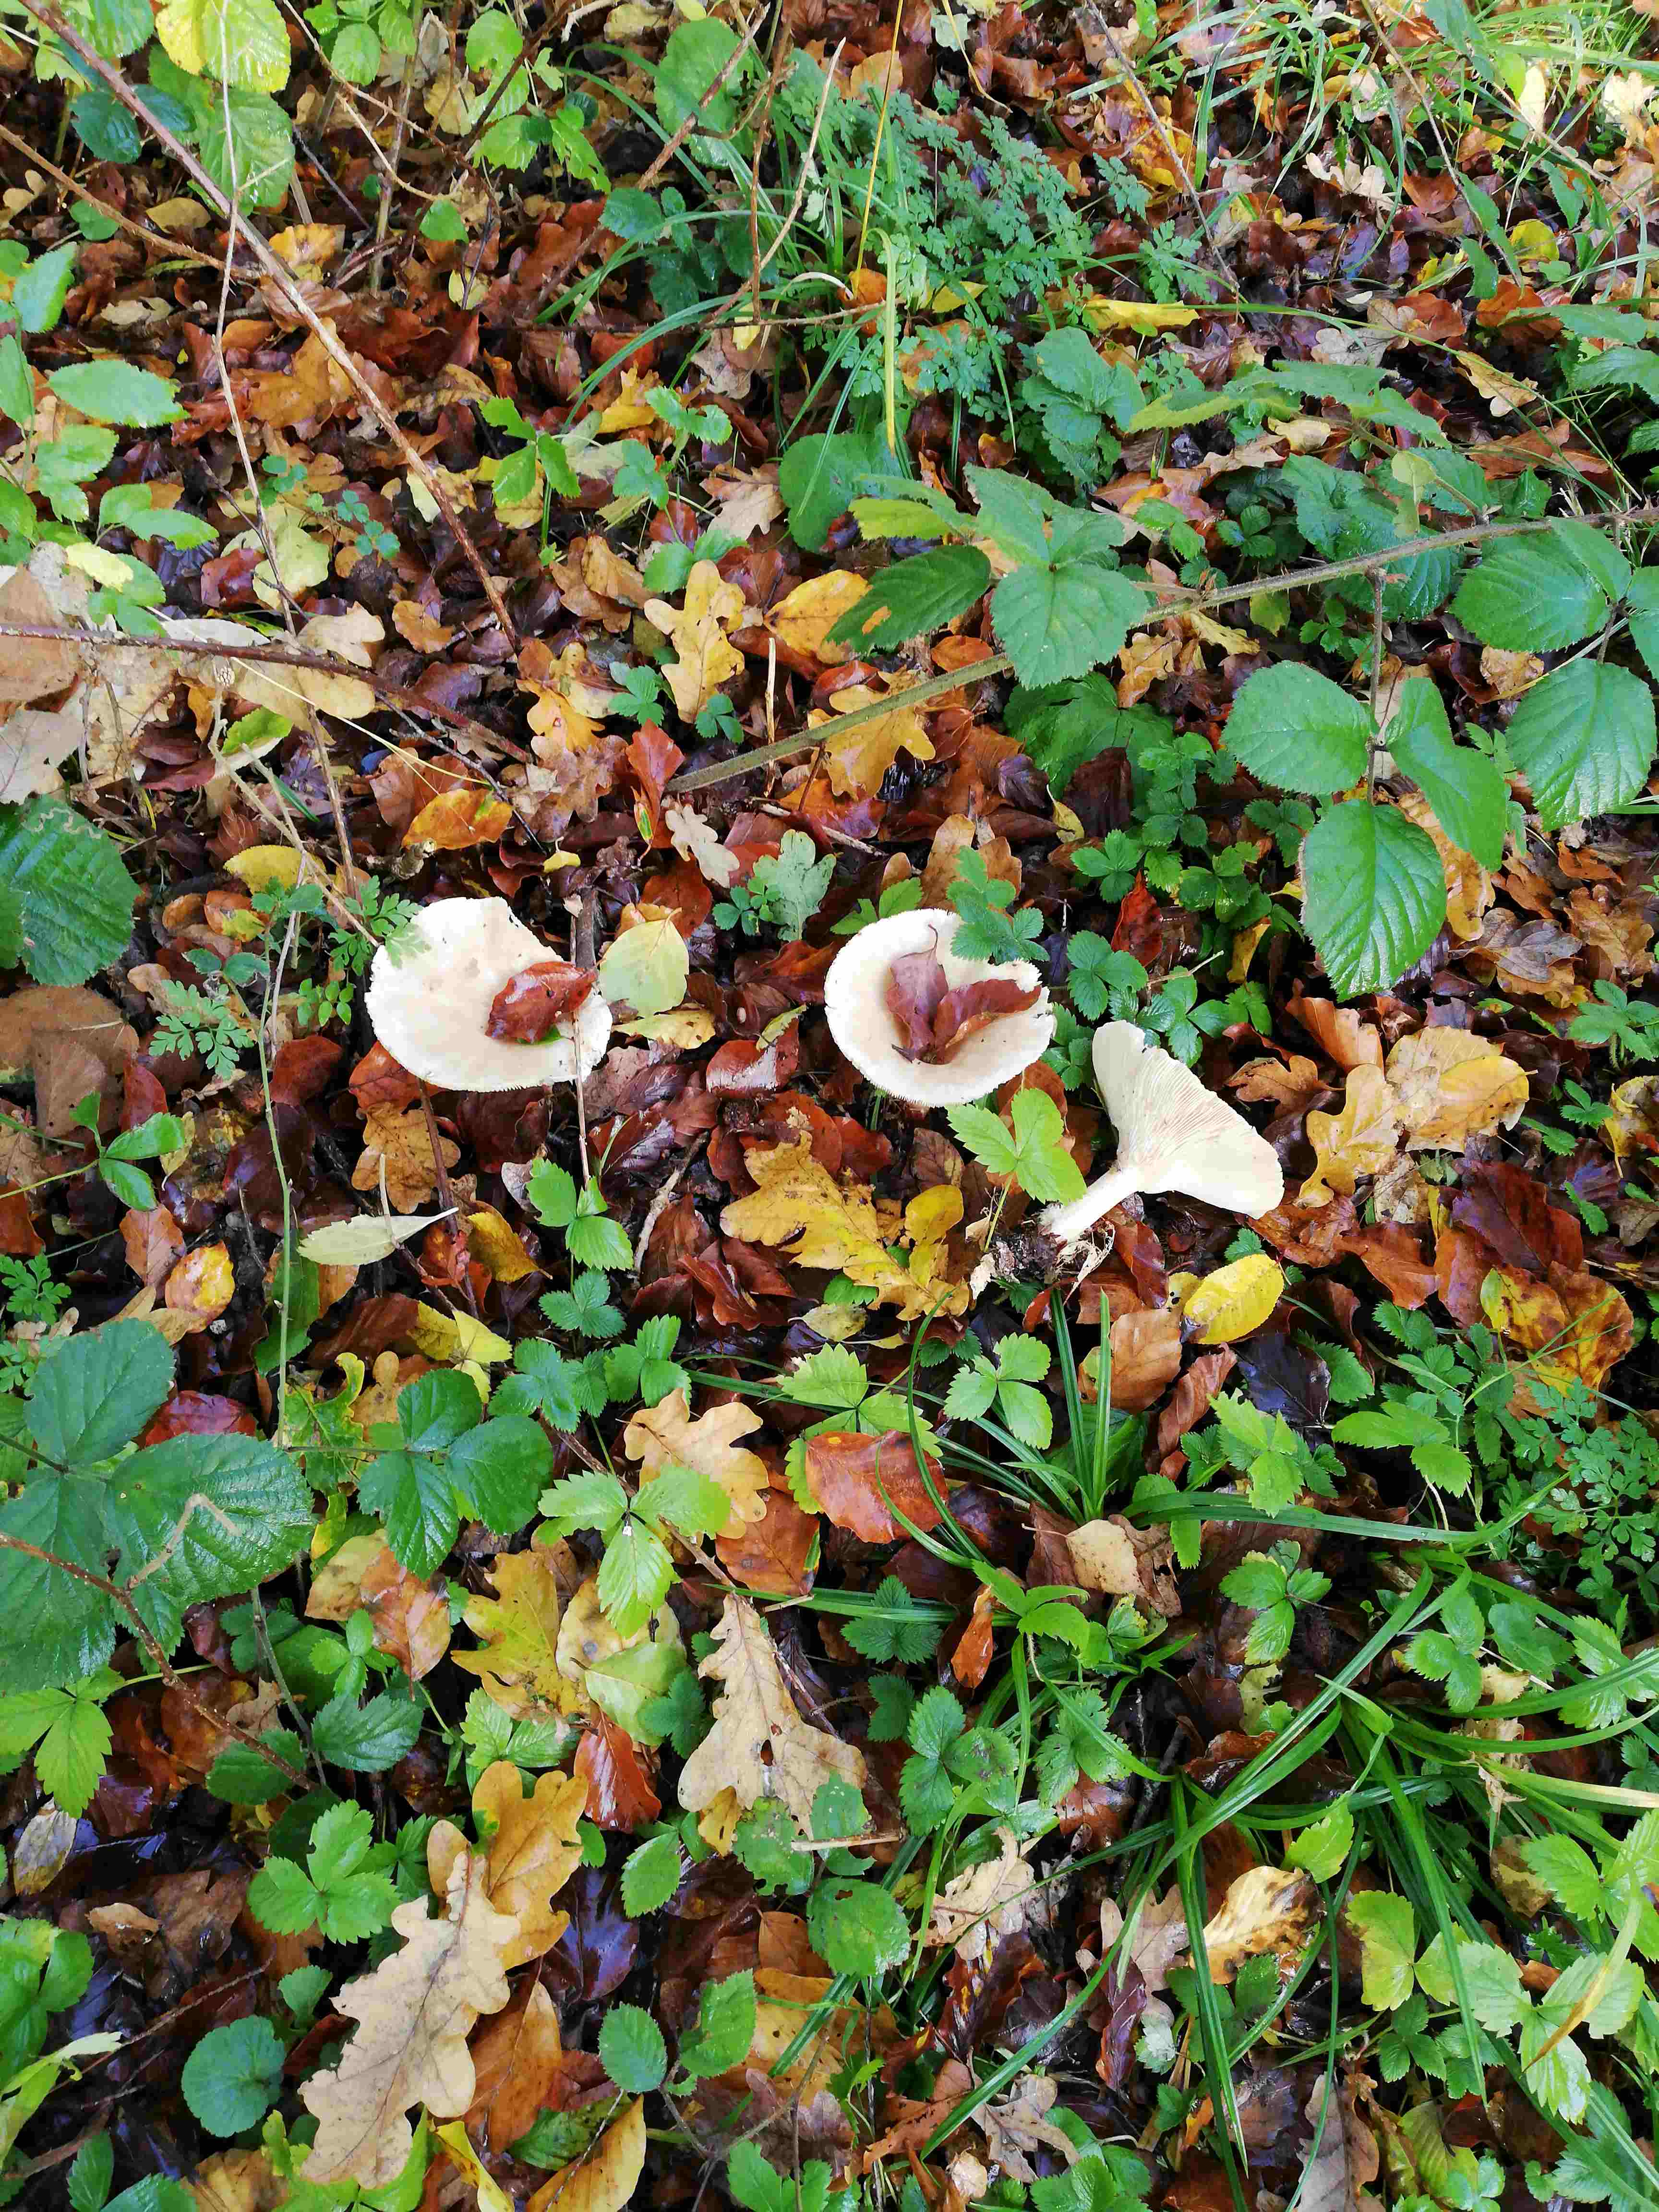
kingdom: Fungi
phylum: Basidiomycota
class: Agaricomycetes
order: Agaricales
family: Tricholomataceae
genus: Infundibulicybe
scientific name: Infundibulicybe geotropa
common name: stor tragthat
